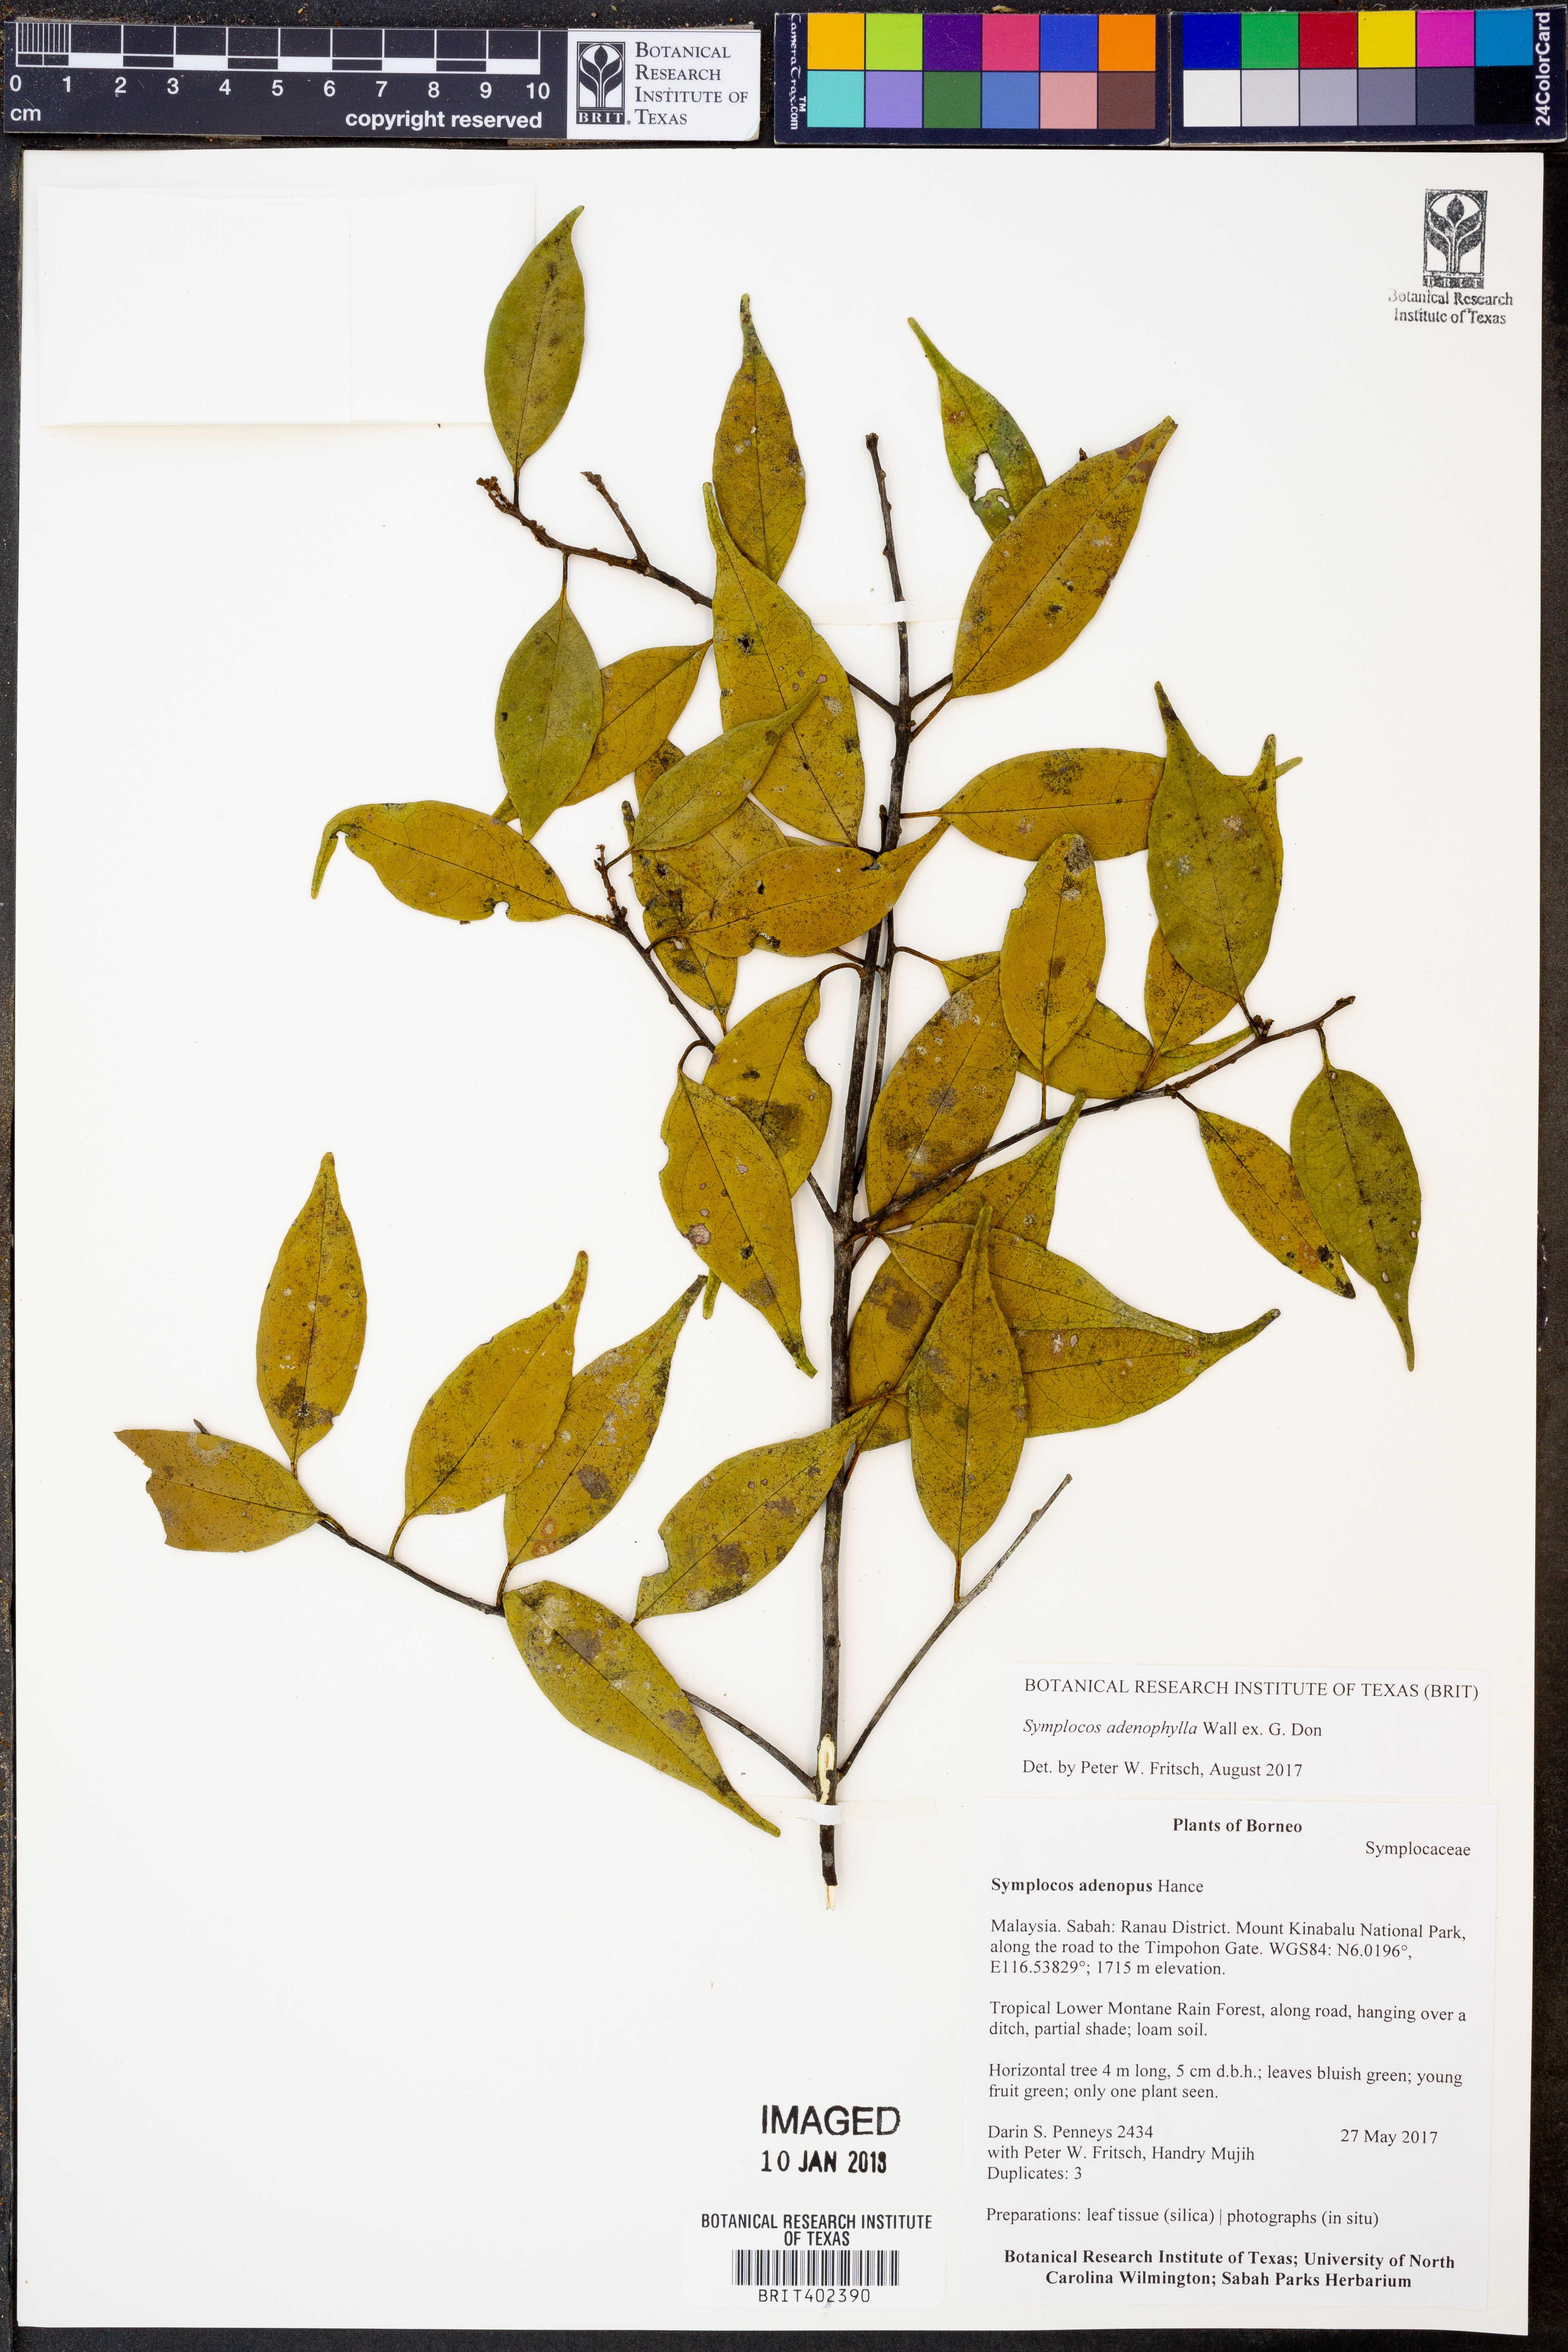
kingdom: Plantae
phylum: Tracheophyta
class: Magnoliopsida
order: Ericales
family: Symplocaceae
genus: Symplocos
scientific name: Symplocos adenophylla
